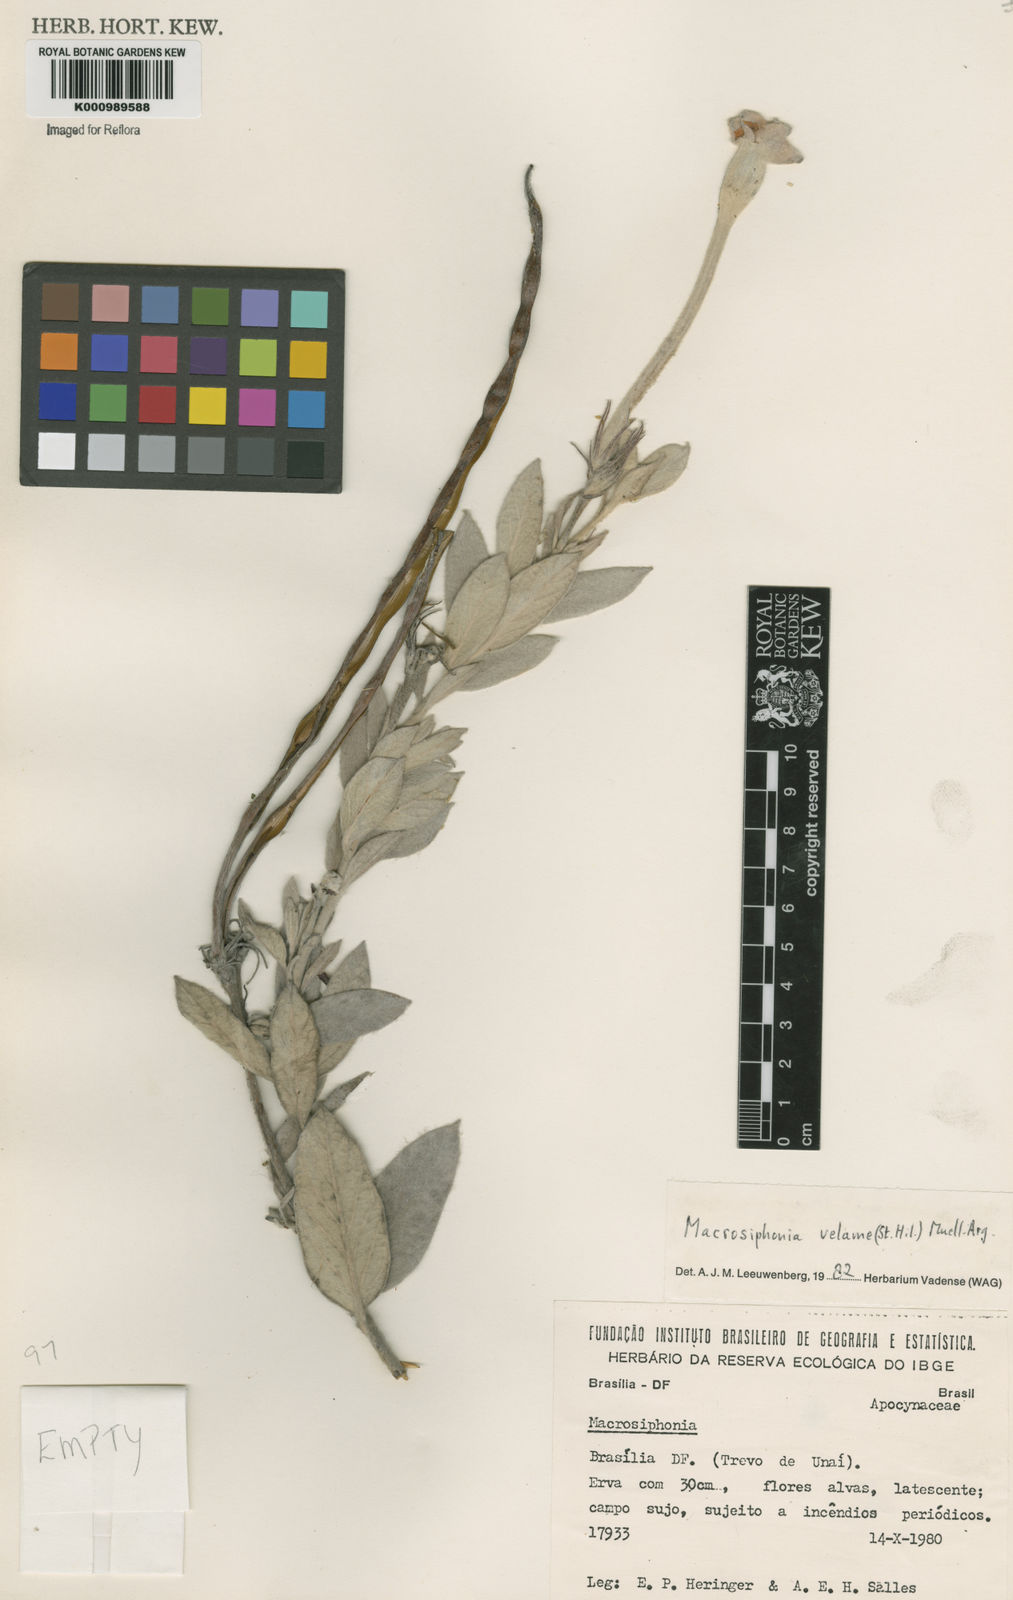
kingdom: Plantae
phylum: Tracheophyta
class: Magnoliopsida
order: Gentianales
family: Apocynaceae
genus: Mandevilla
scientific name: Mandevilla velame
